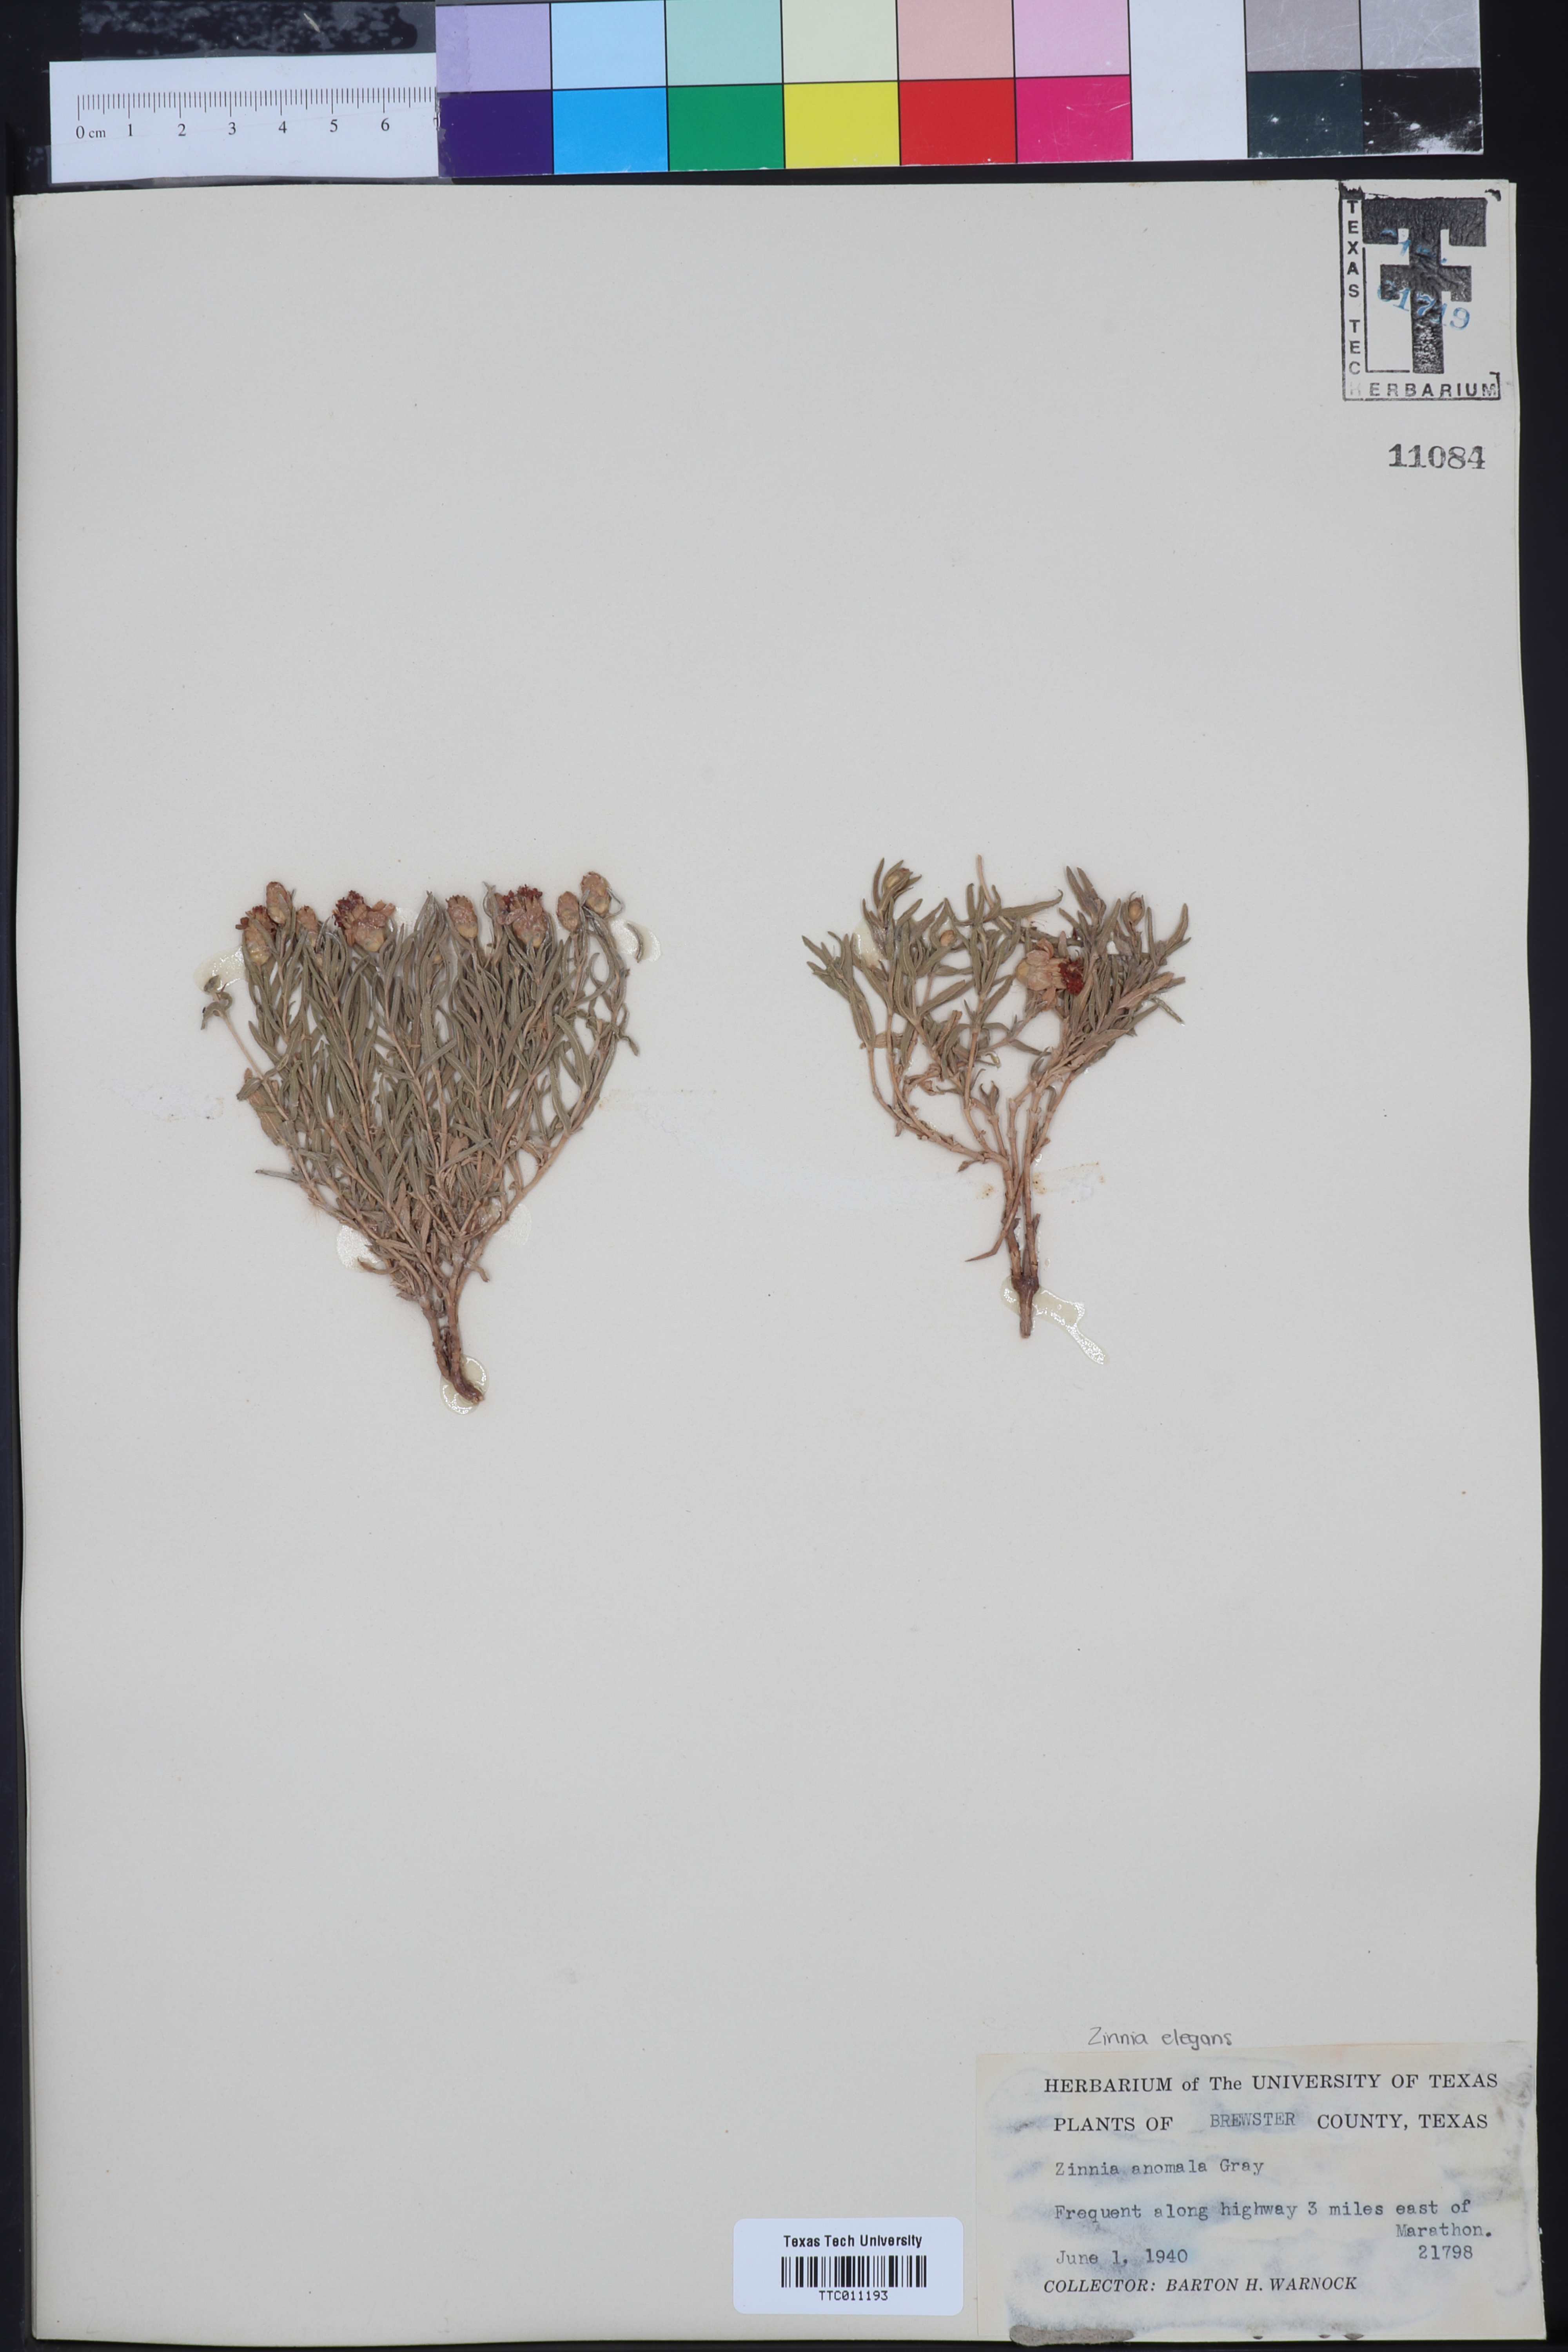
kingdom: Plantae
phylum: Tracheophyta
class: Magnoliopsida
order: Asterales
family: Asteraceae
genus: Zinnia
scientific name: Zinnia anomala
